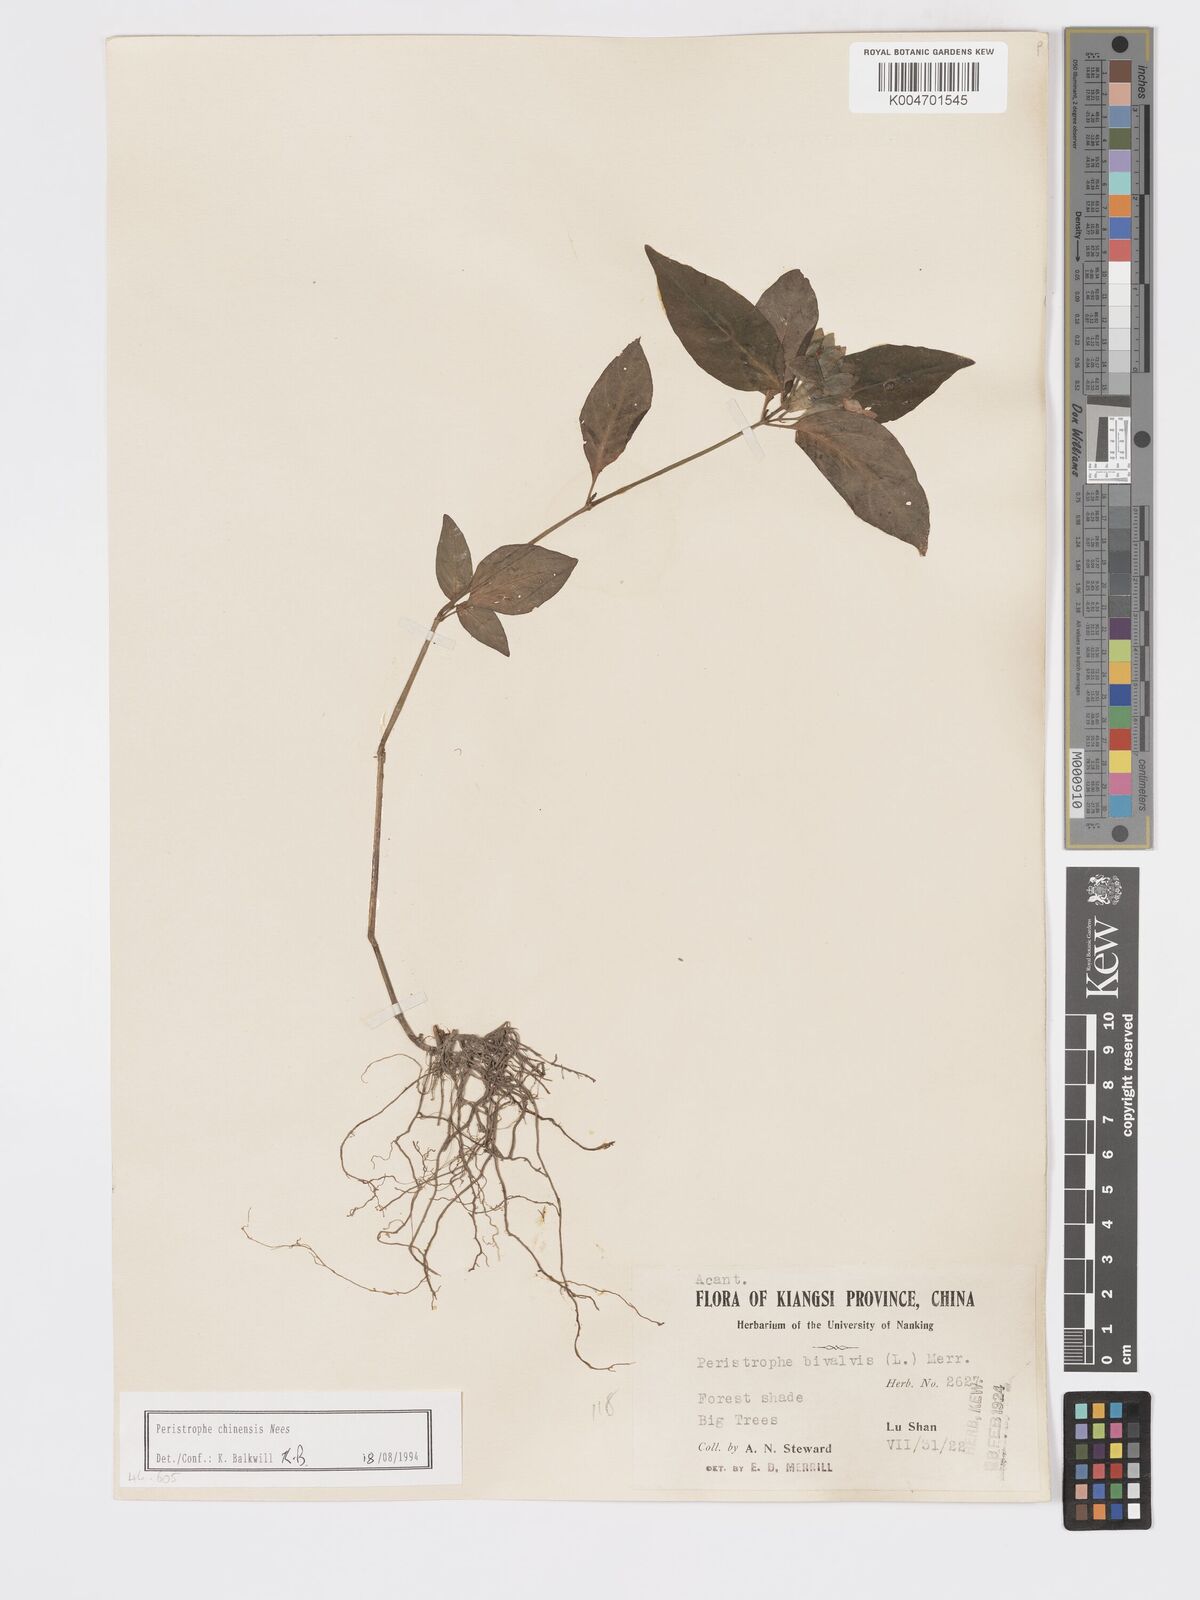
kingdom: Plantae
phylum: Tracheophyta
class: Magnoliopsida
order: Lamiales
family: Acanthaceae
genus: Dicliptera
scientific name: Dicliptera chinensis
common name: Chinese foldwing
